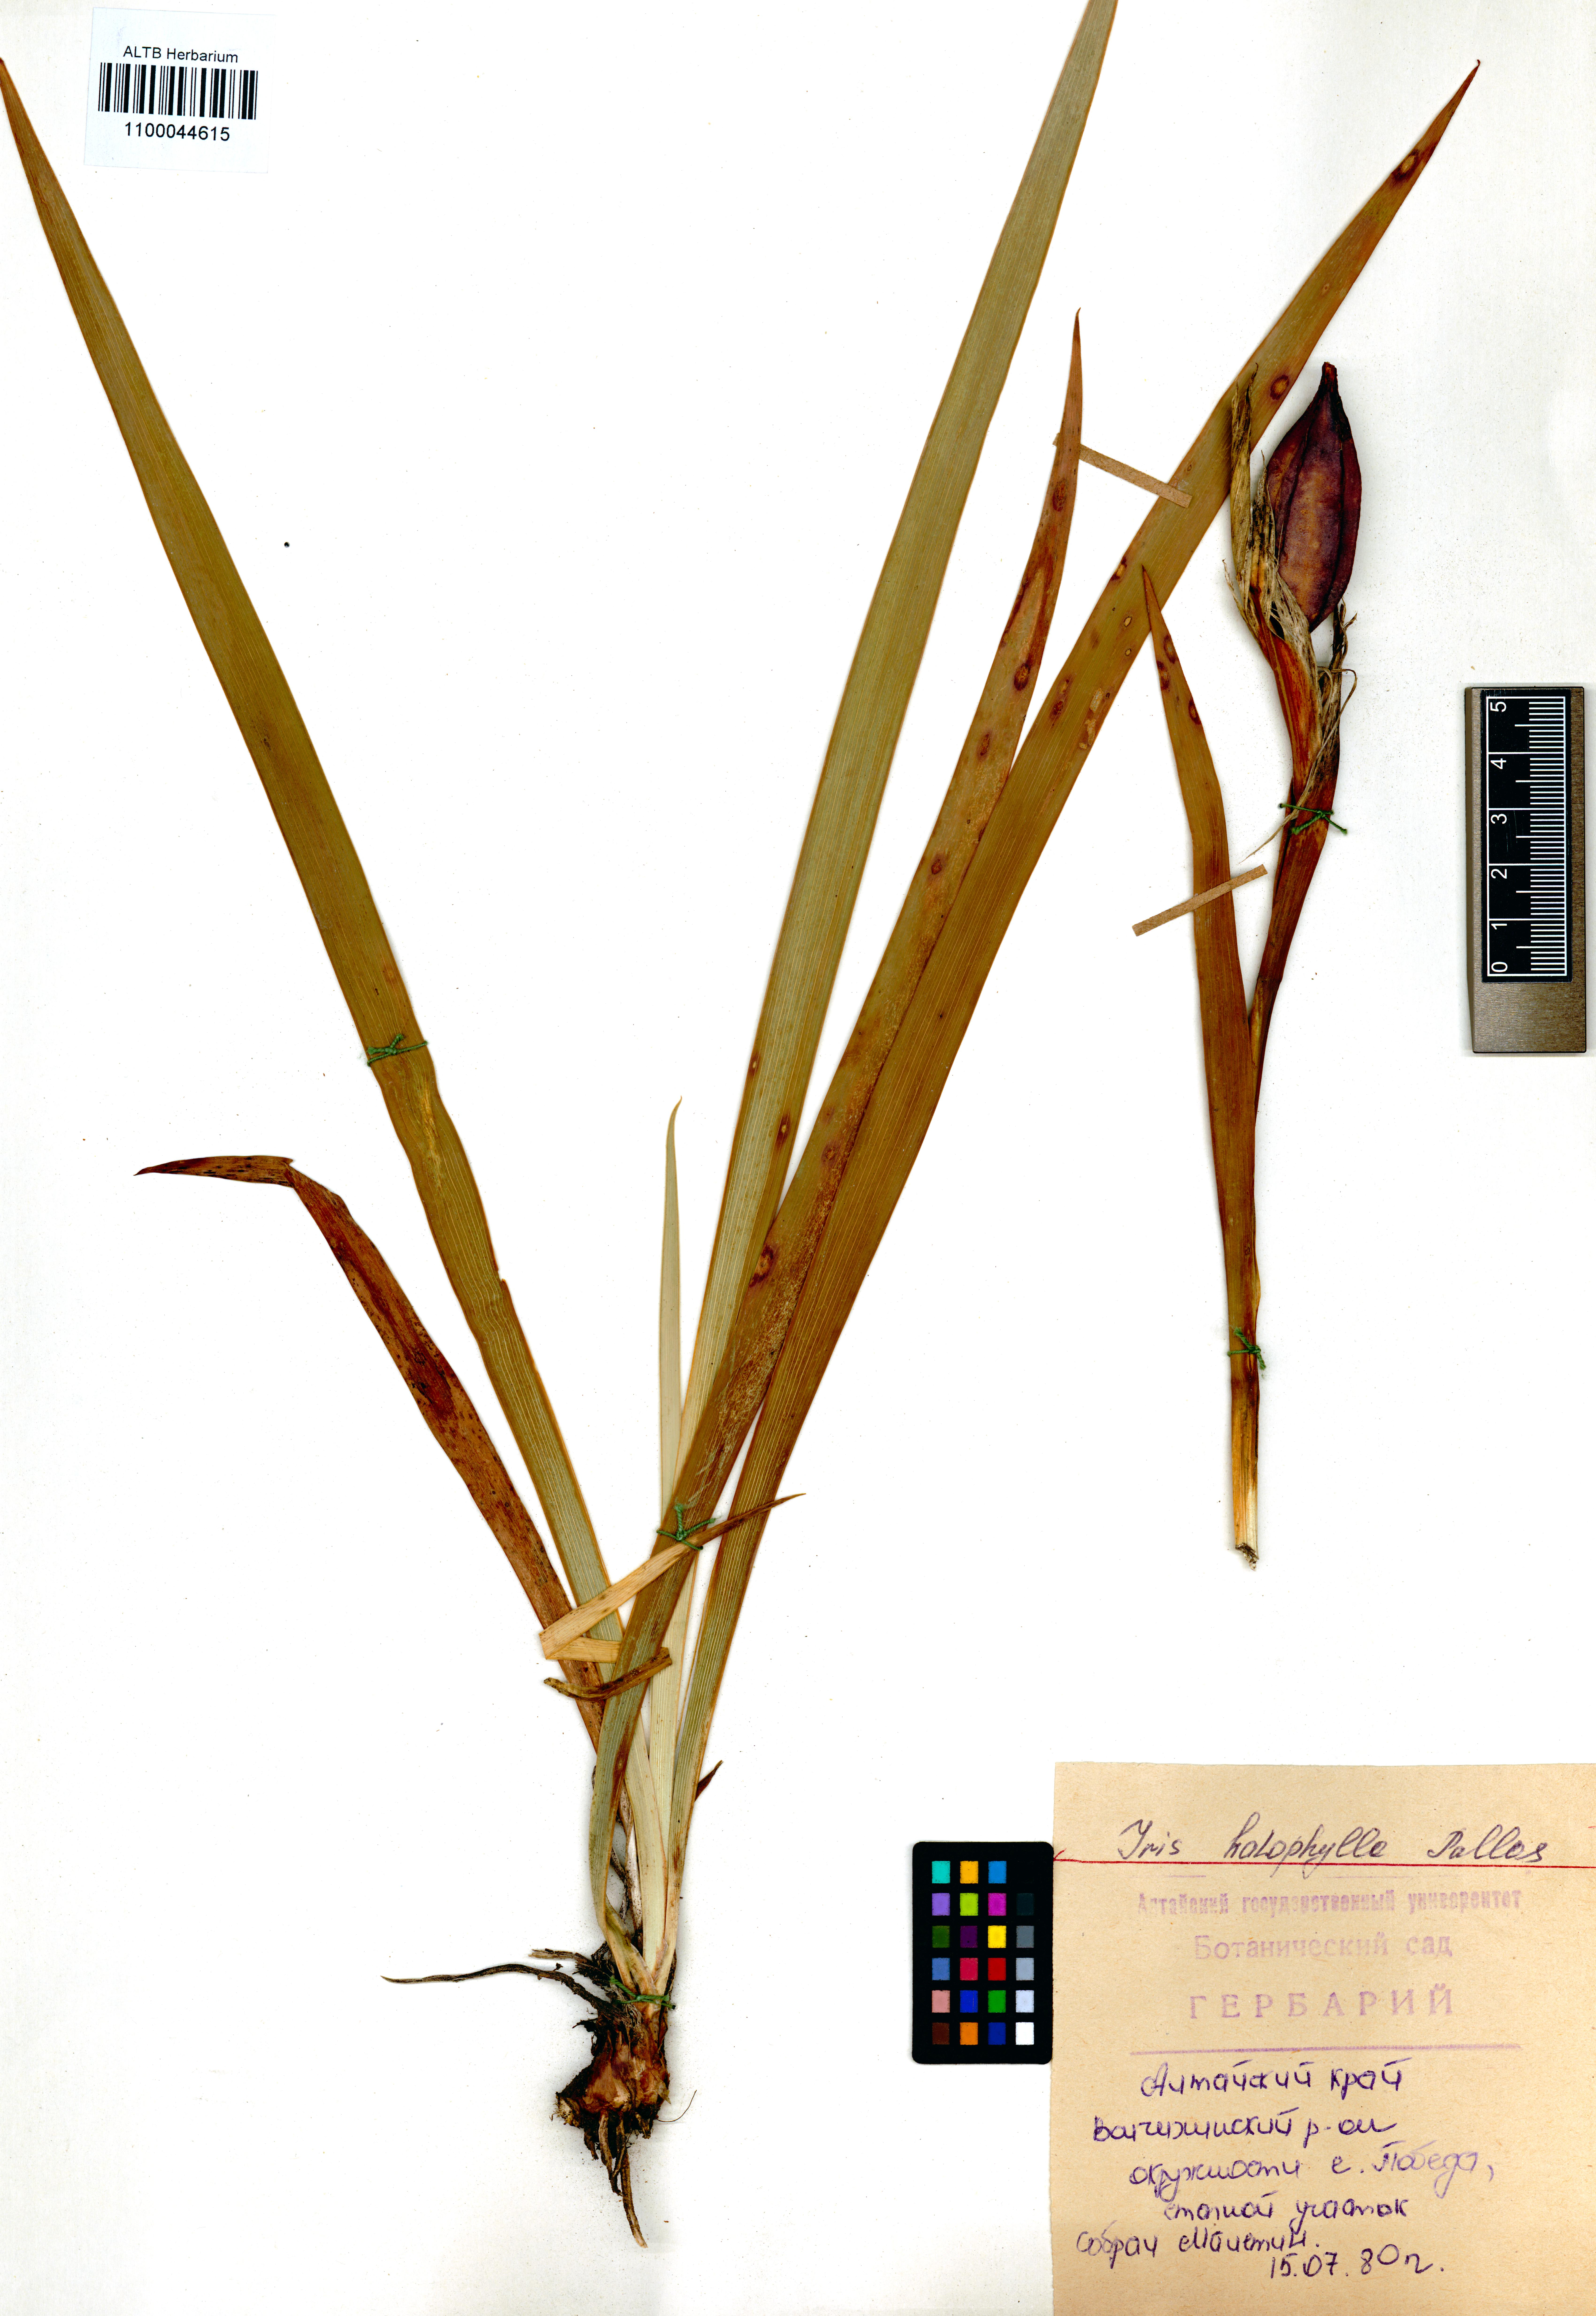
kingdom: Plantae
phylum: Tracheophyta
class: Liliopsida
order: Asparagales
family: Iridaceae
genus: Iris
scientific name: Iris halophila
